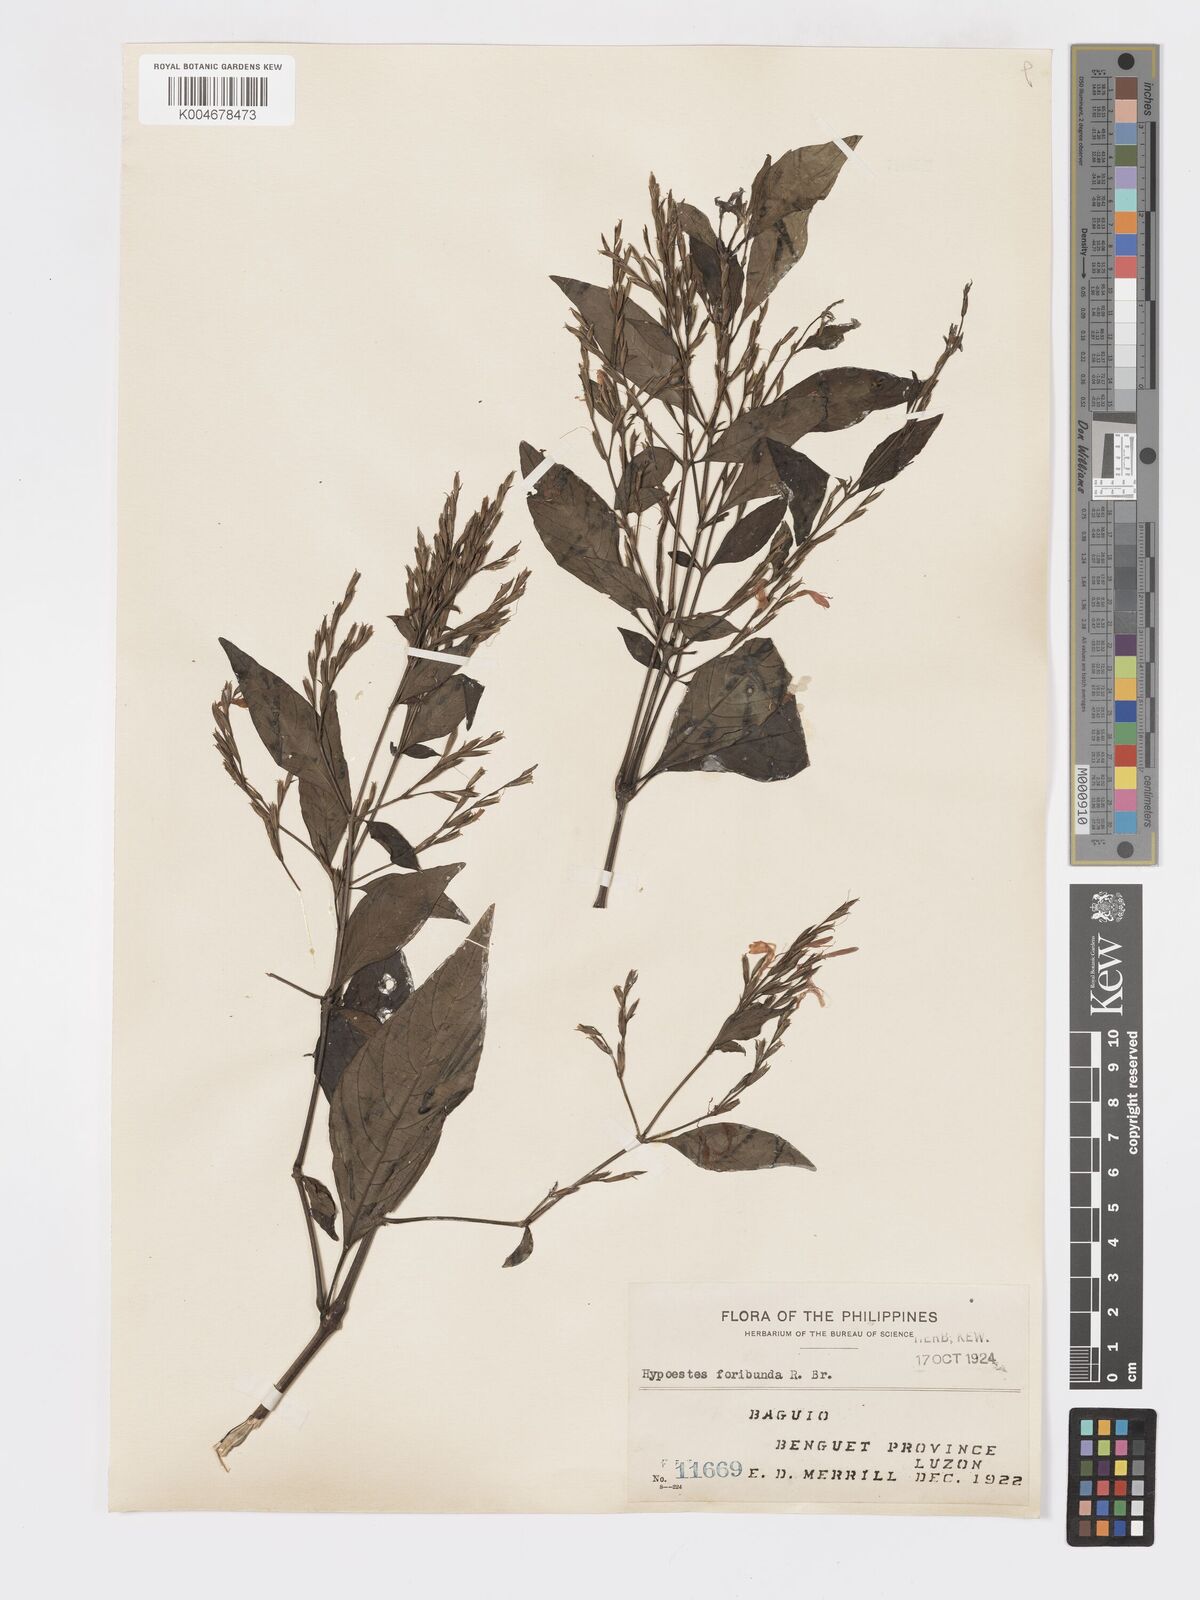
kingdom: Plantae
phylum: Tracheophyta
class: Magnoliopsida
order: Lamiales
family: Acanthaceae
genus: Hypoestes
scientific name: Hypoestes floribunda
